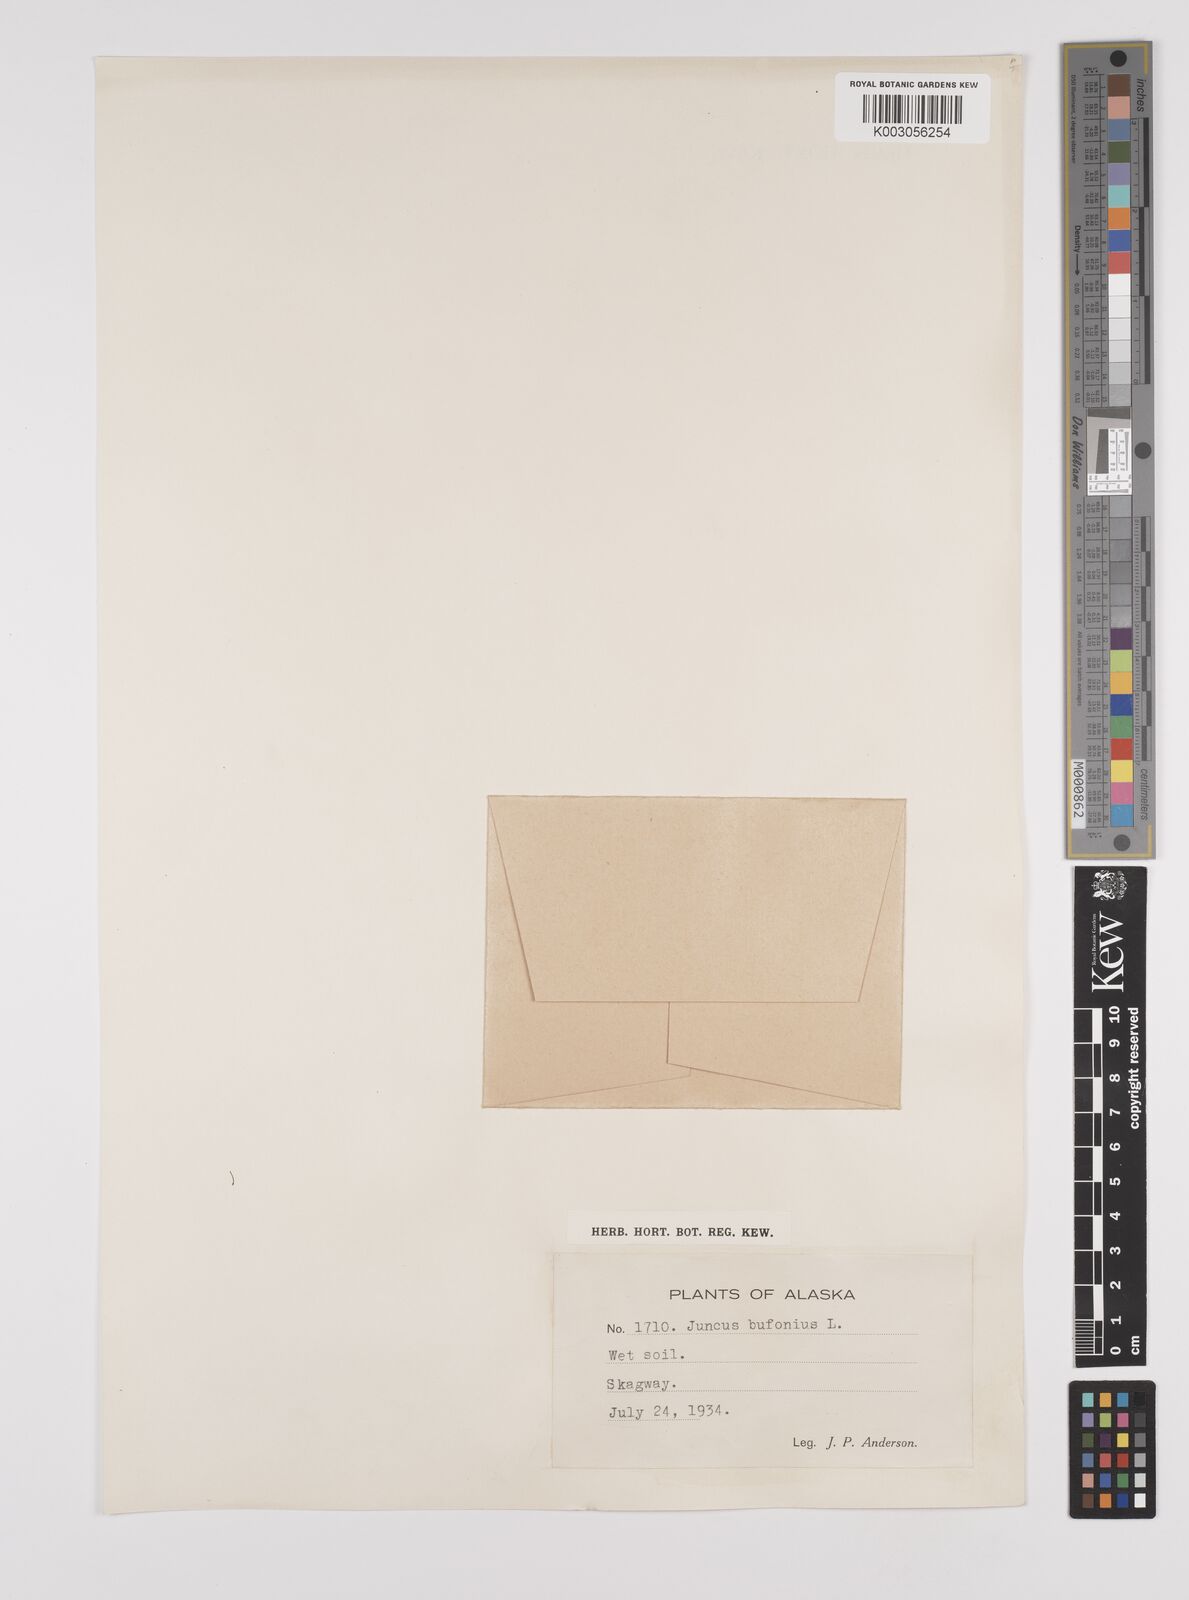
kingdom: Plantae
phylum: Tracheophyta
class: Liliopsida
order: Poales
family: Juncaceae
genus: Juncus
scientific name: Juncus bufonius
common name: Toad rush
